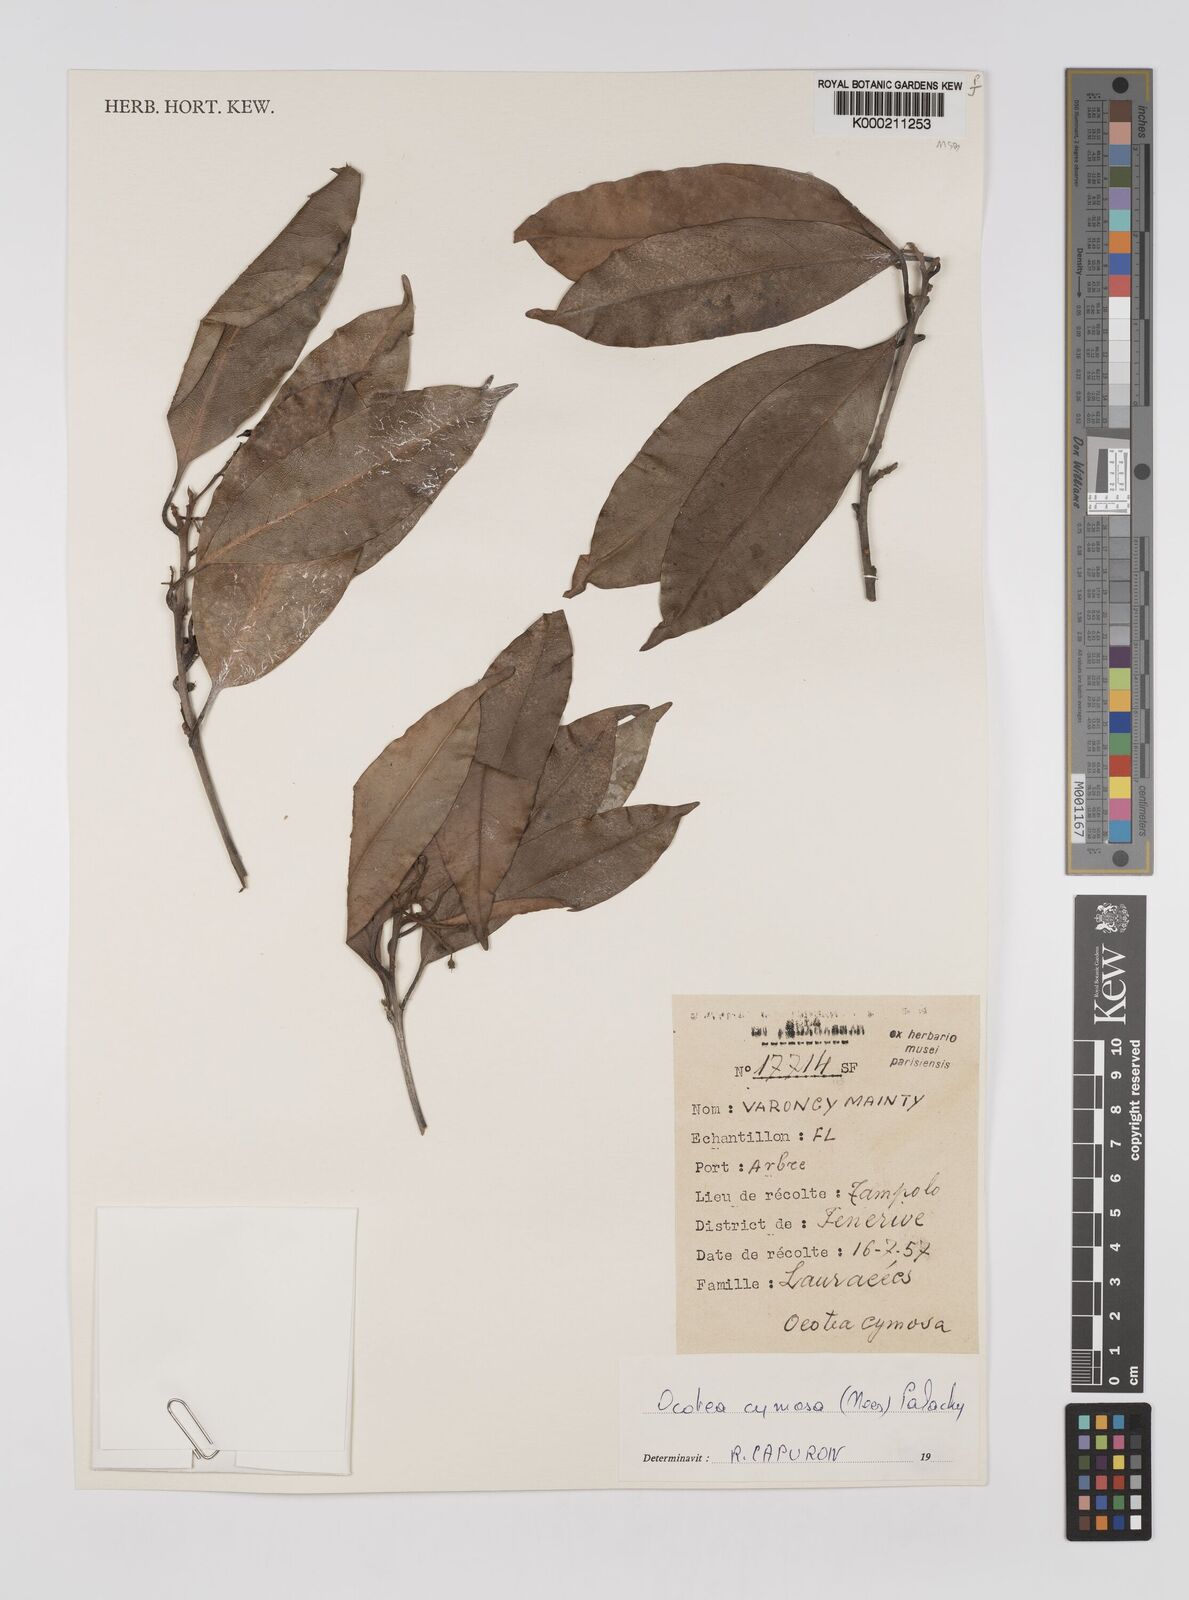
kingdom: Plantae
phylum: Tracheophyta
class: Magnoliopsida
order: Laurales
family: Lauraceae
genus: Mespilodaphne
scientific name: Mespilodaphne cymosa
